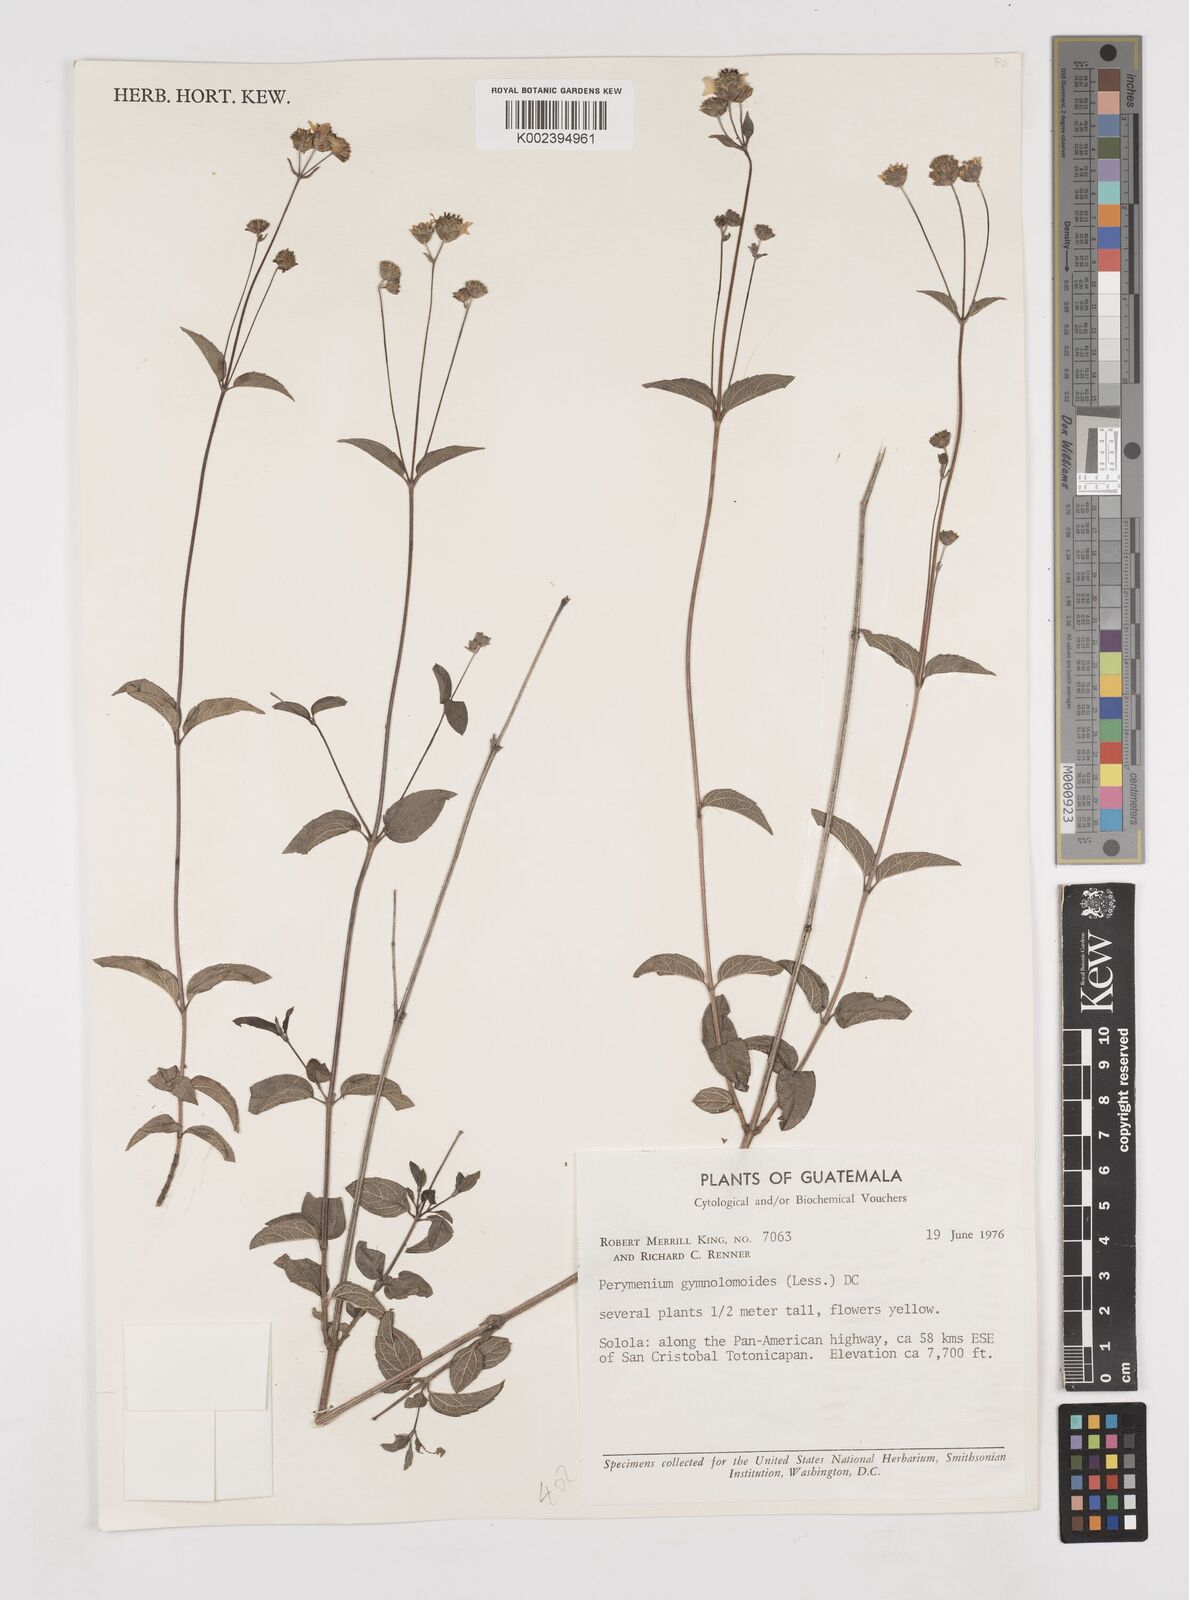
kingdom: Plantae
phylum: Tracheophyta
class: Magnoliopsida
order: Asterales
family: Asteraceae
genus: Perymenium
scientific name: Perymenium gymnolomoides
